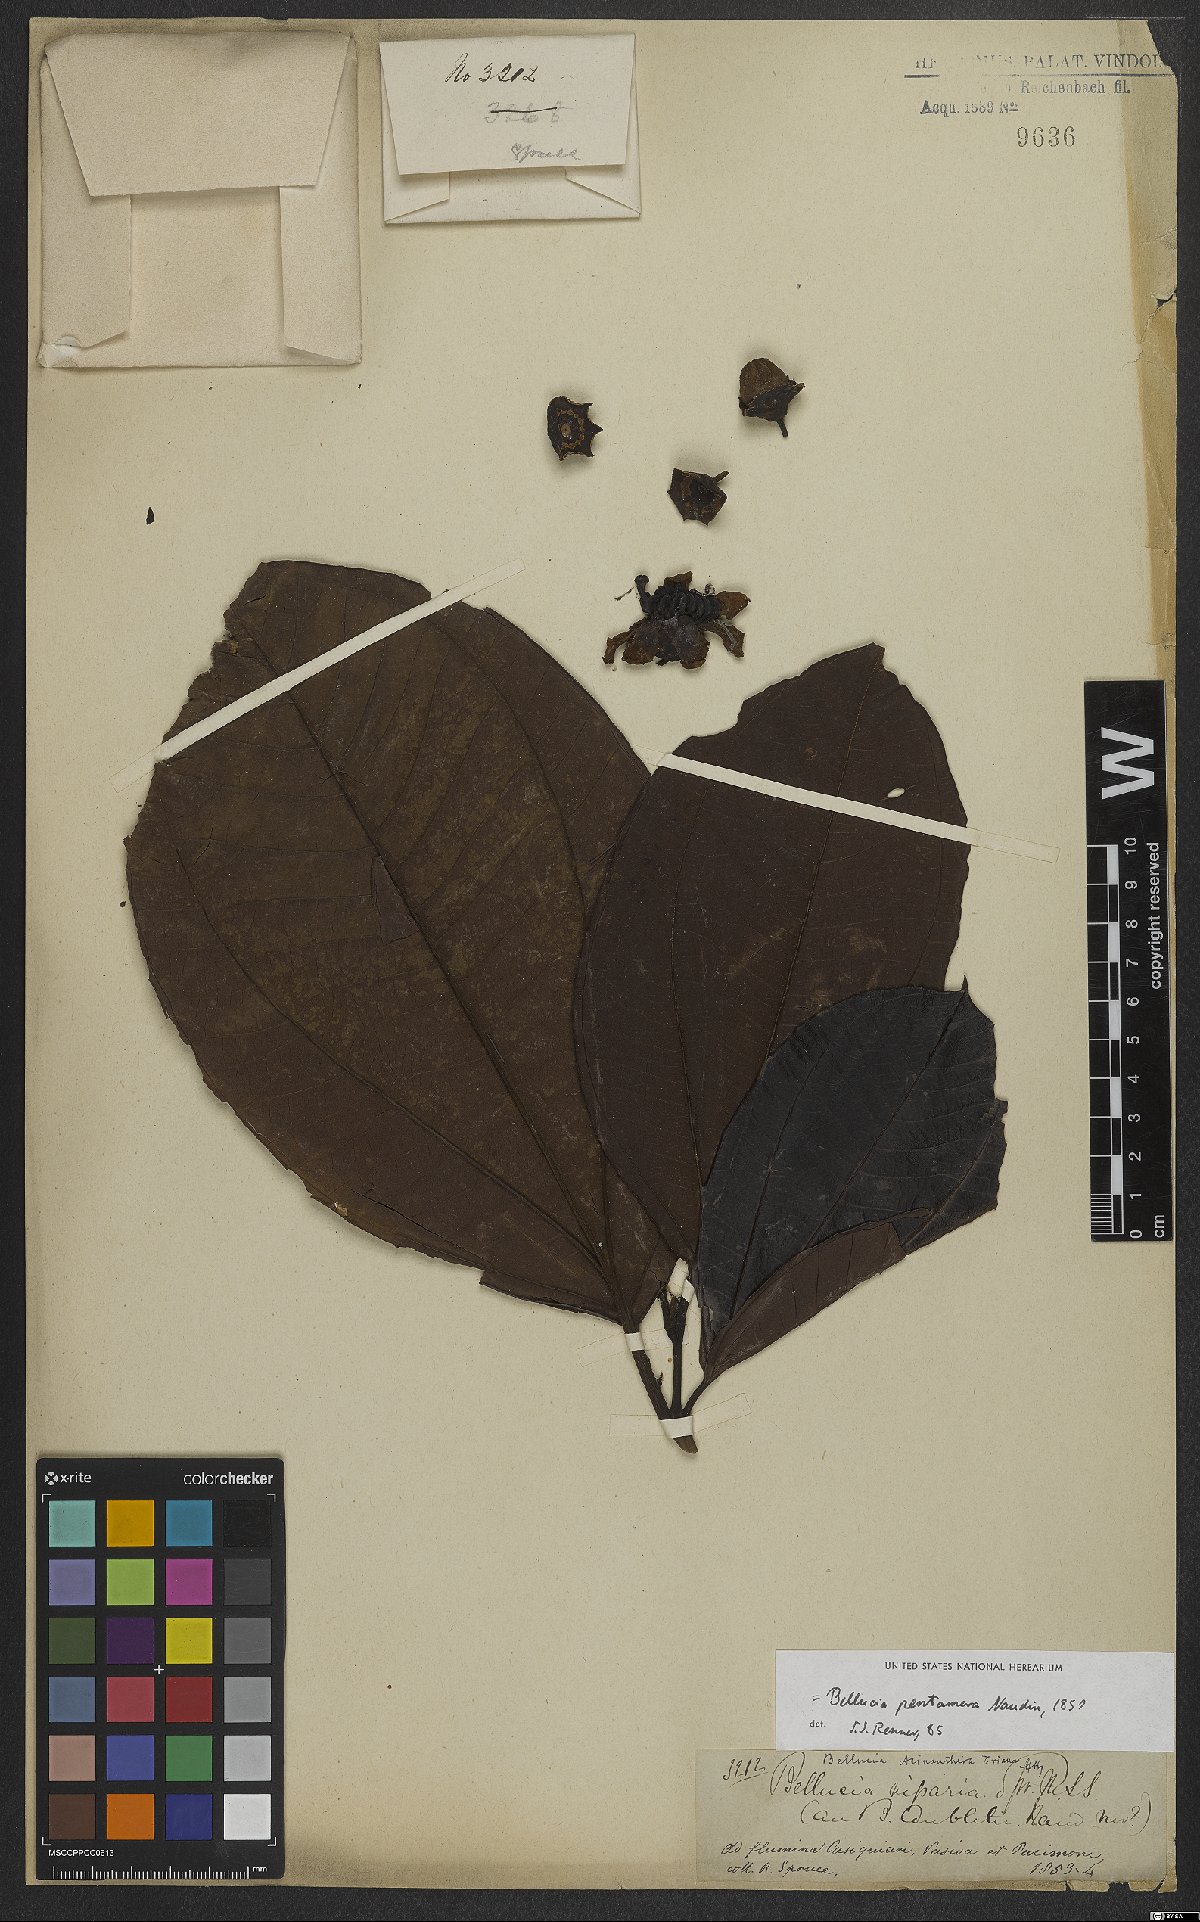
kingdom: Plantae
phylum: Tracheophyta
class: Magnoliopsida
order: Myrtales
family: Melastomataceae
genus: Bellucia
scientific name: Bellucia pentamera
